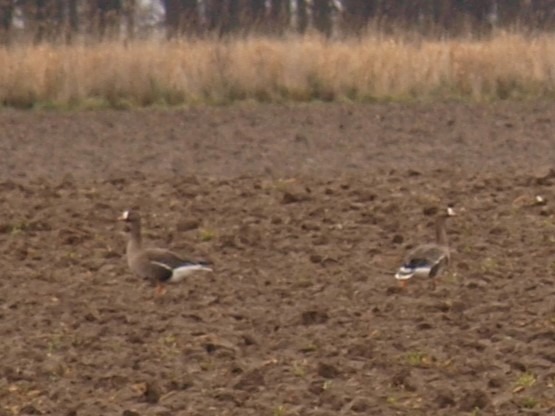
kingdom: Animalia
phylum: Chordata
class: Aves
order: Anseriformes
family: Anatidae
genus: Anser
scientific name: Anser albifrons
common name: Blisgås
